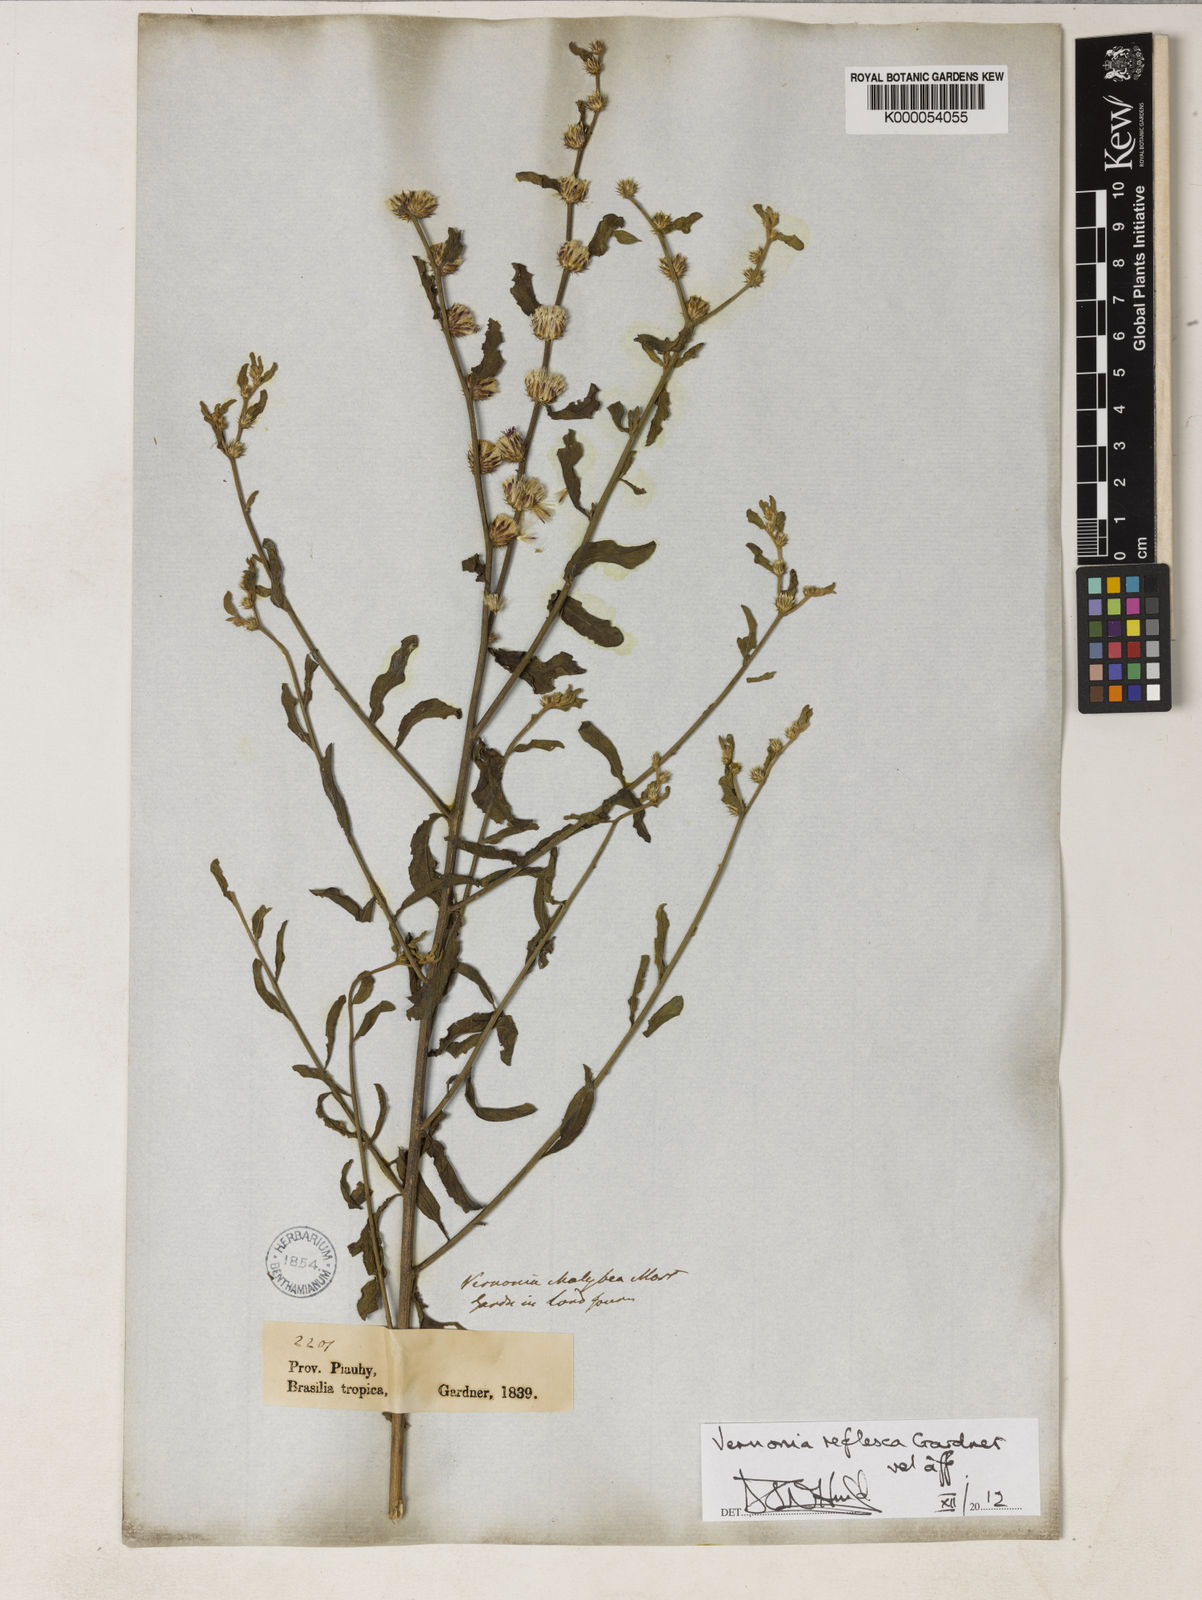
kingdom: Plantae
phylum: Tracheophyta
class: Magnoliopsida
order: Asterales
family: Asteraceae
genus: Lepidaploa
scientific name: Lepidaploa reflexa
